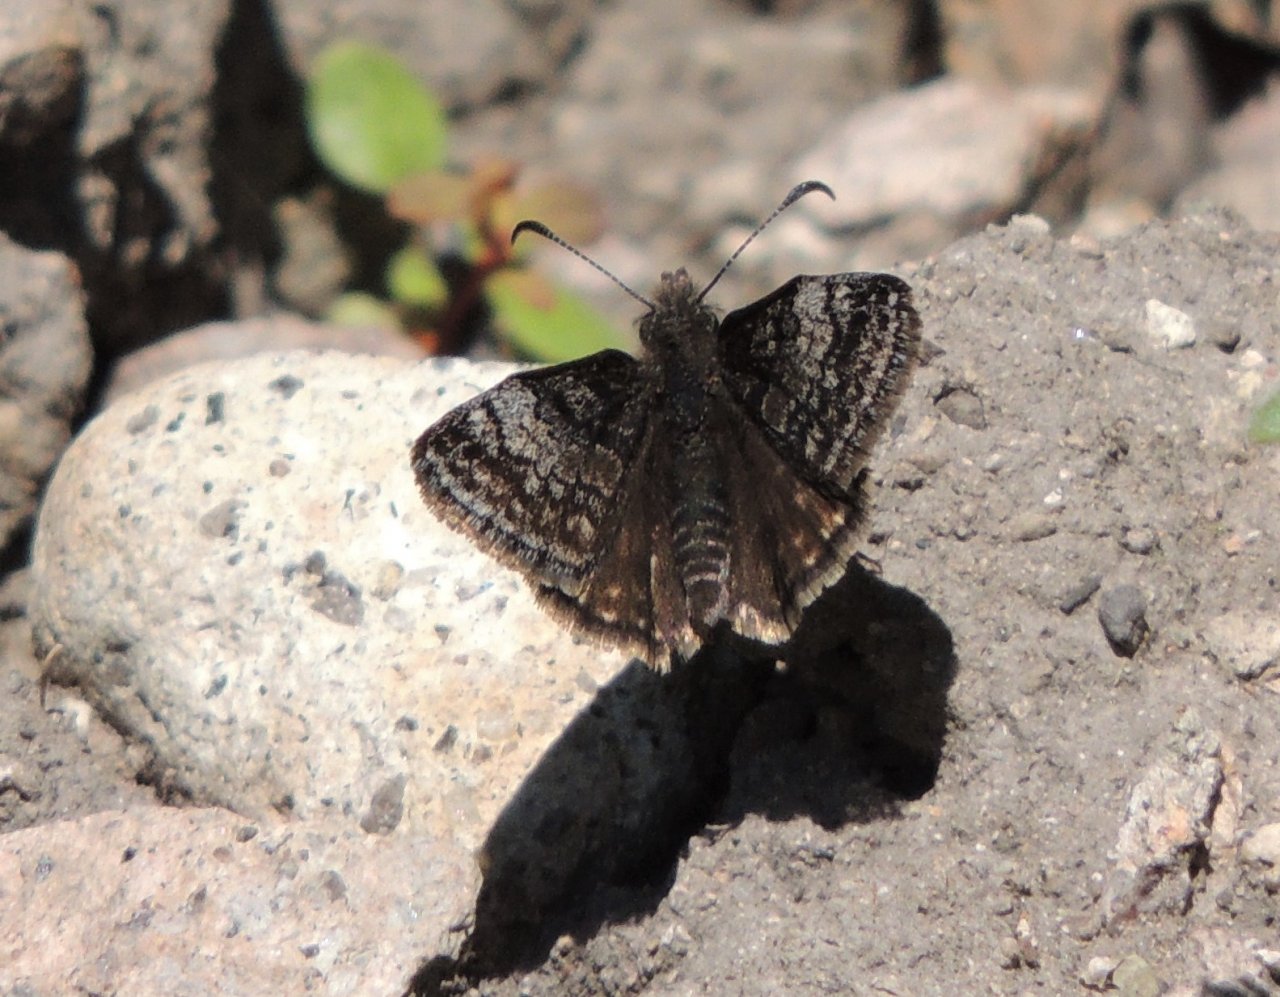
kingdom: Animalia
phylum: Arthropoda
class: Insecta
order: Lepidoptera
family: Hesperiidae
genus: Erynnis
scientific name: Erynnis icelus
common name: Dreamy Duskywing
